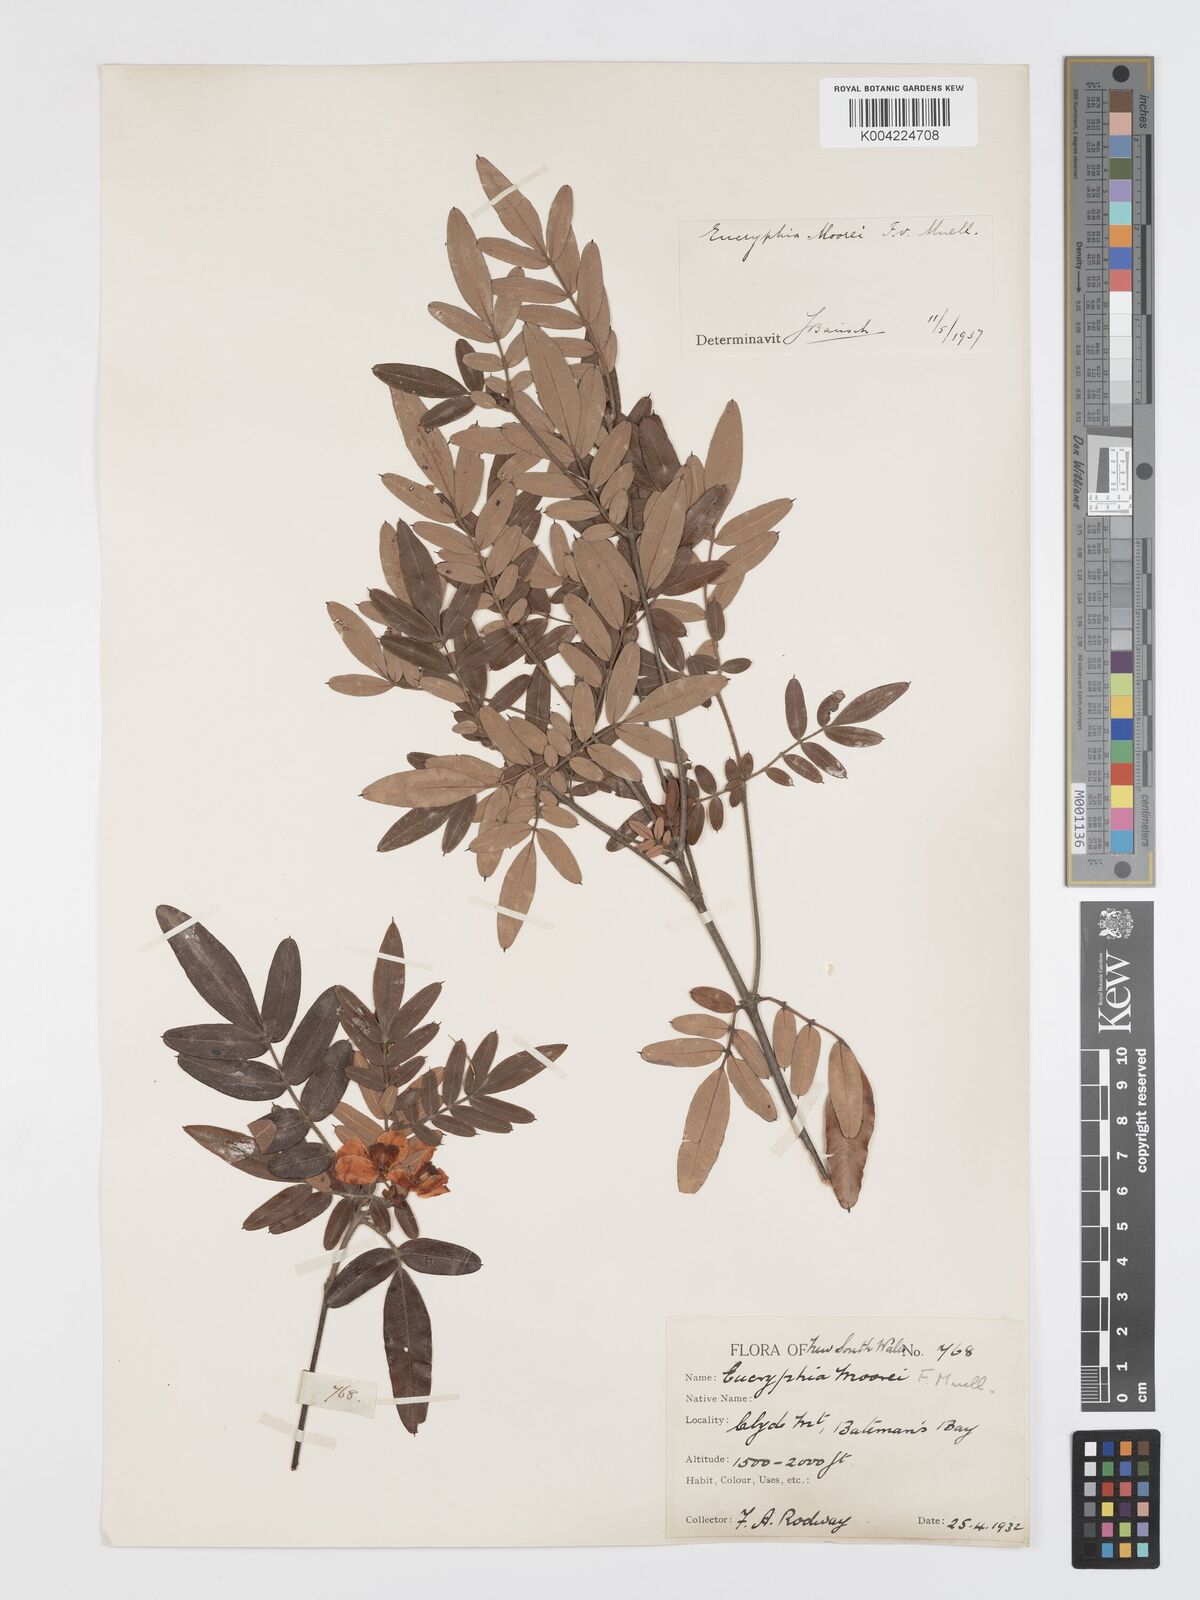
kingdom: Plantae
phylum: Tracheophyta
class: Magnoliopsida
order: Oxalidales
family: Cunoniaceae
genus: Eucryphia
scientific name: Eucryphia moorei
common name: Acacia-plum
